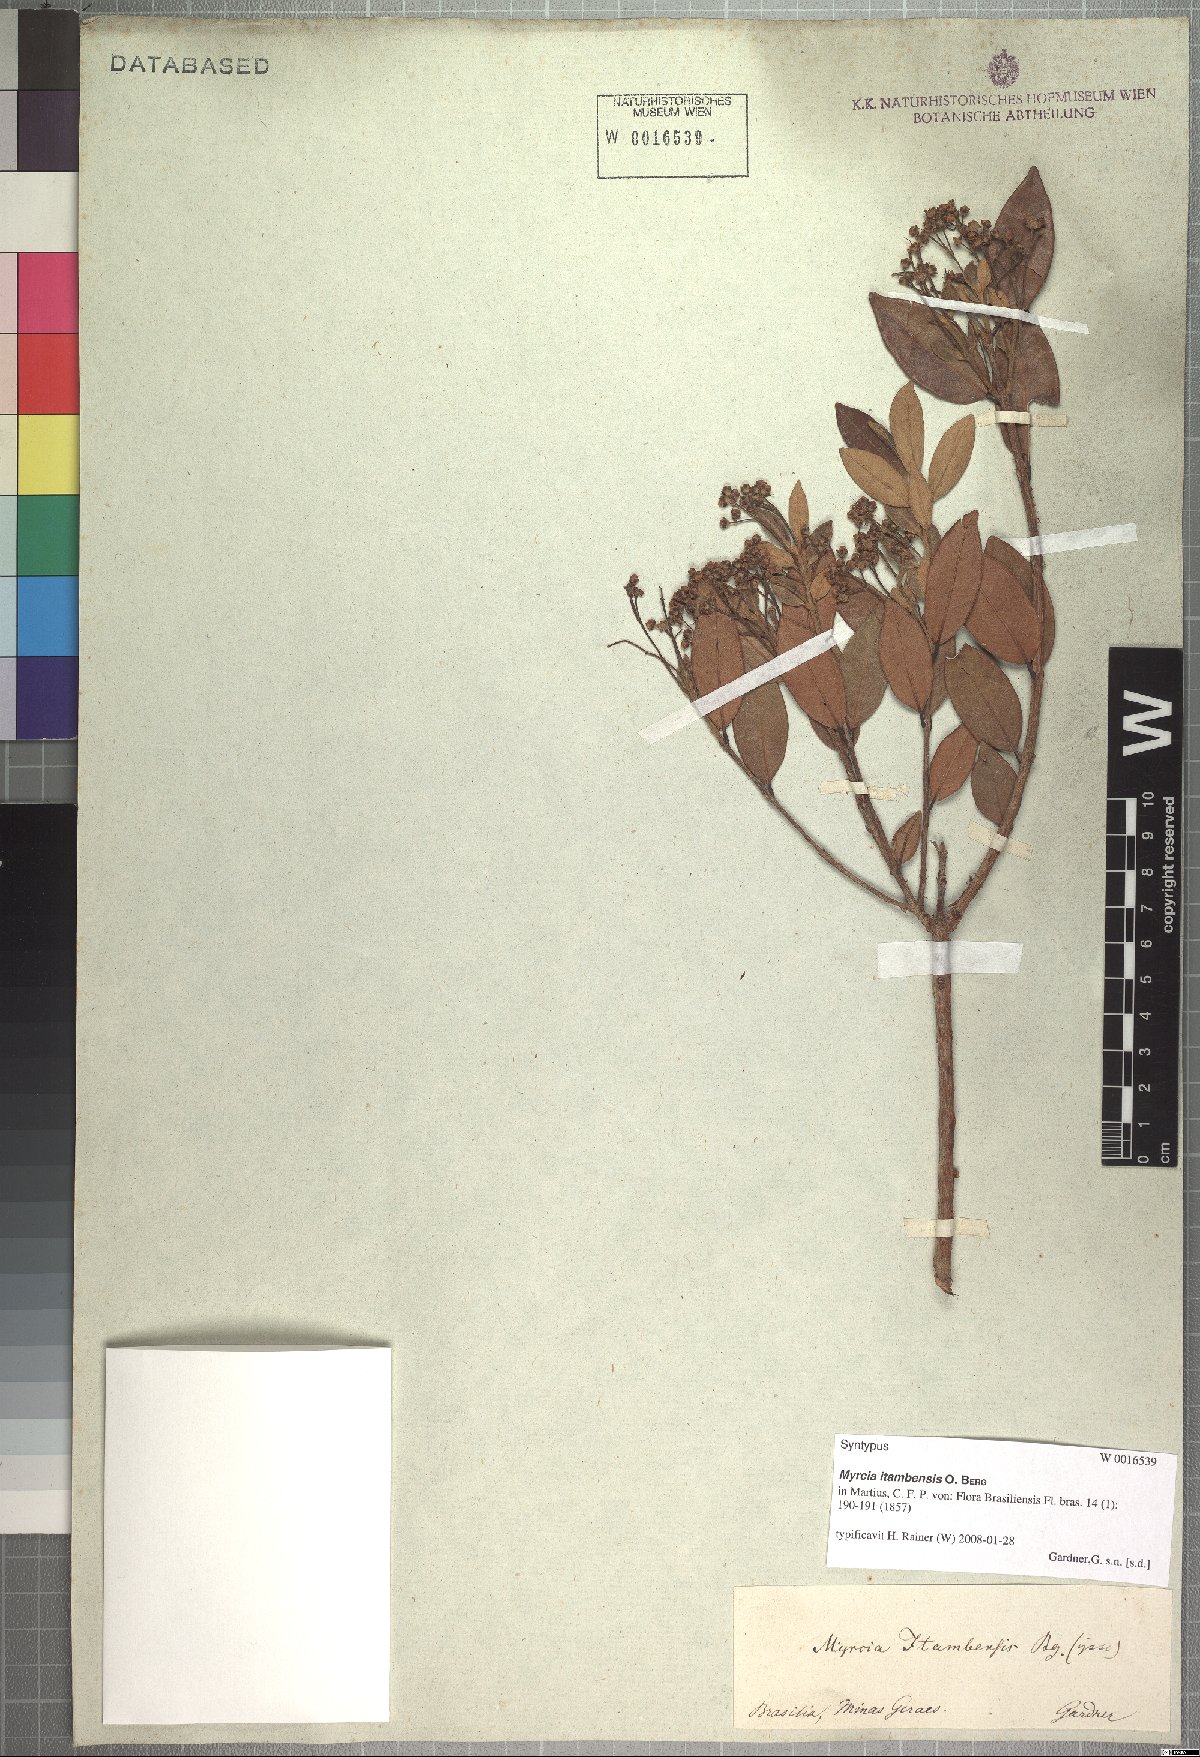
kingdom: Plantae
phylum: Tracheophyta
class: Magnoliopsida
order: Myrtales
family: Myrtaceae
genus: Myrcia
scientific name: Myrcia retorta
